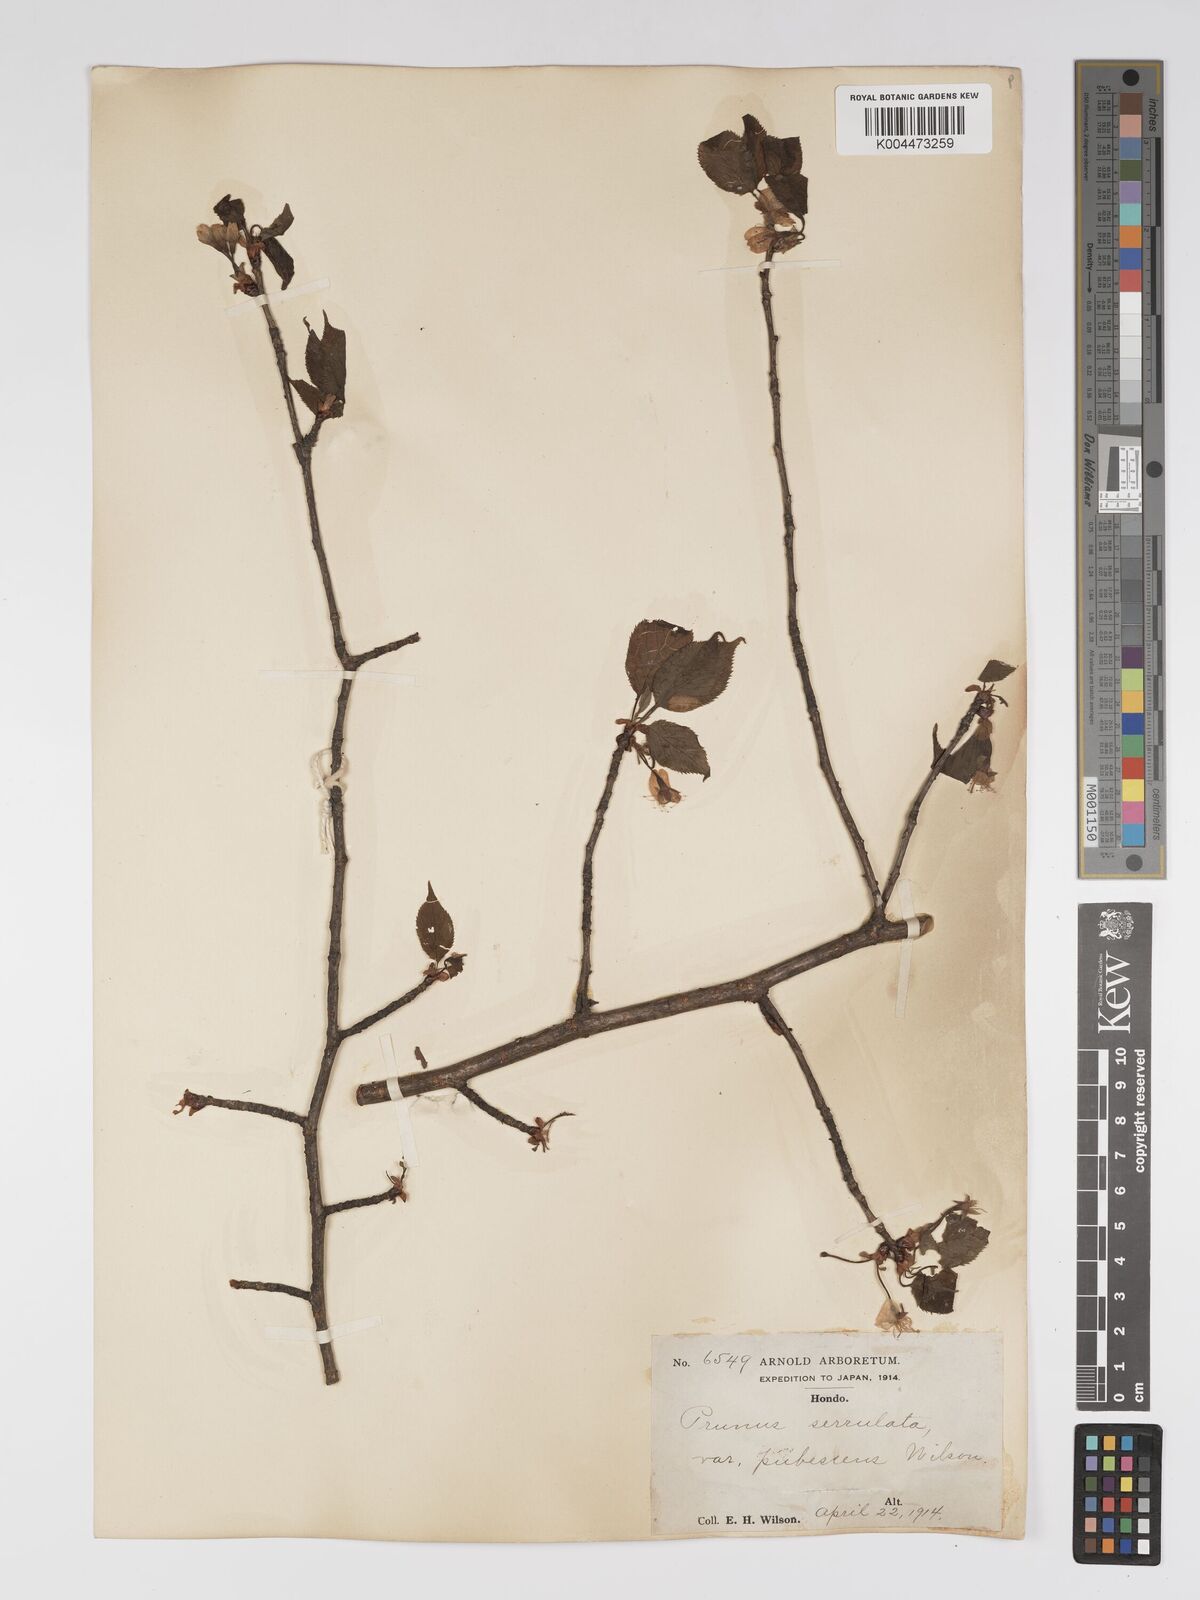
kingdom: Plantae
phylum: Tracheophyta
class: Magnoliopsida
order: Rosales
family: Rosaceae
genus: Prunus
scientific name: Prunus serrulata
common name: Japanese cherry
